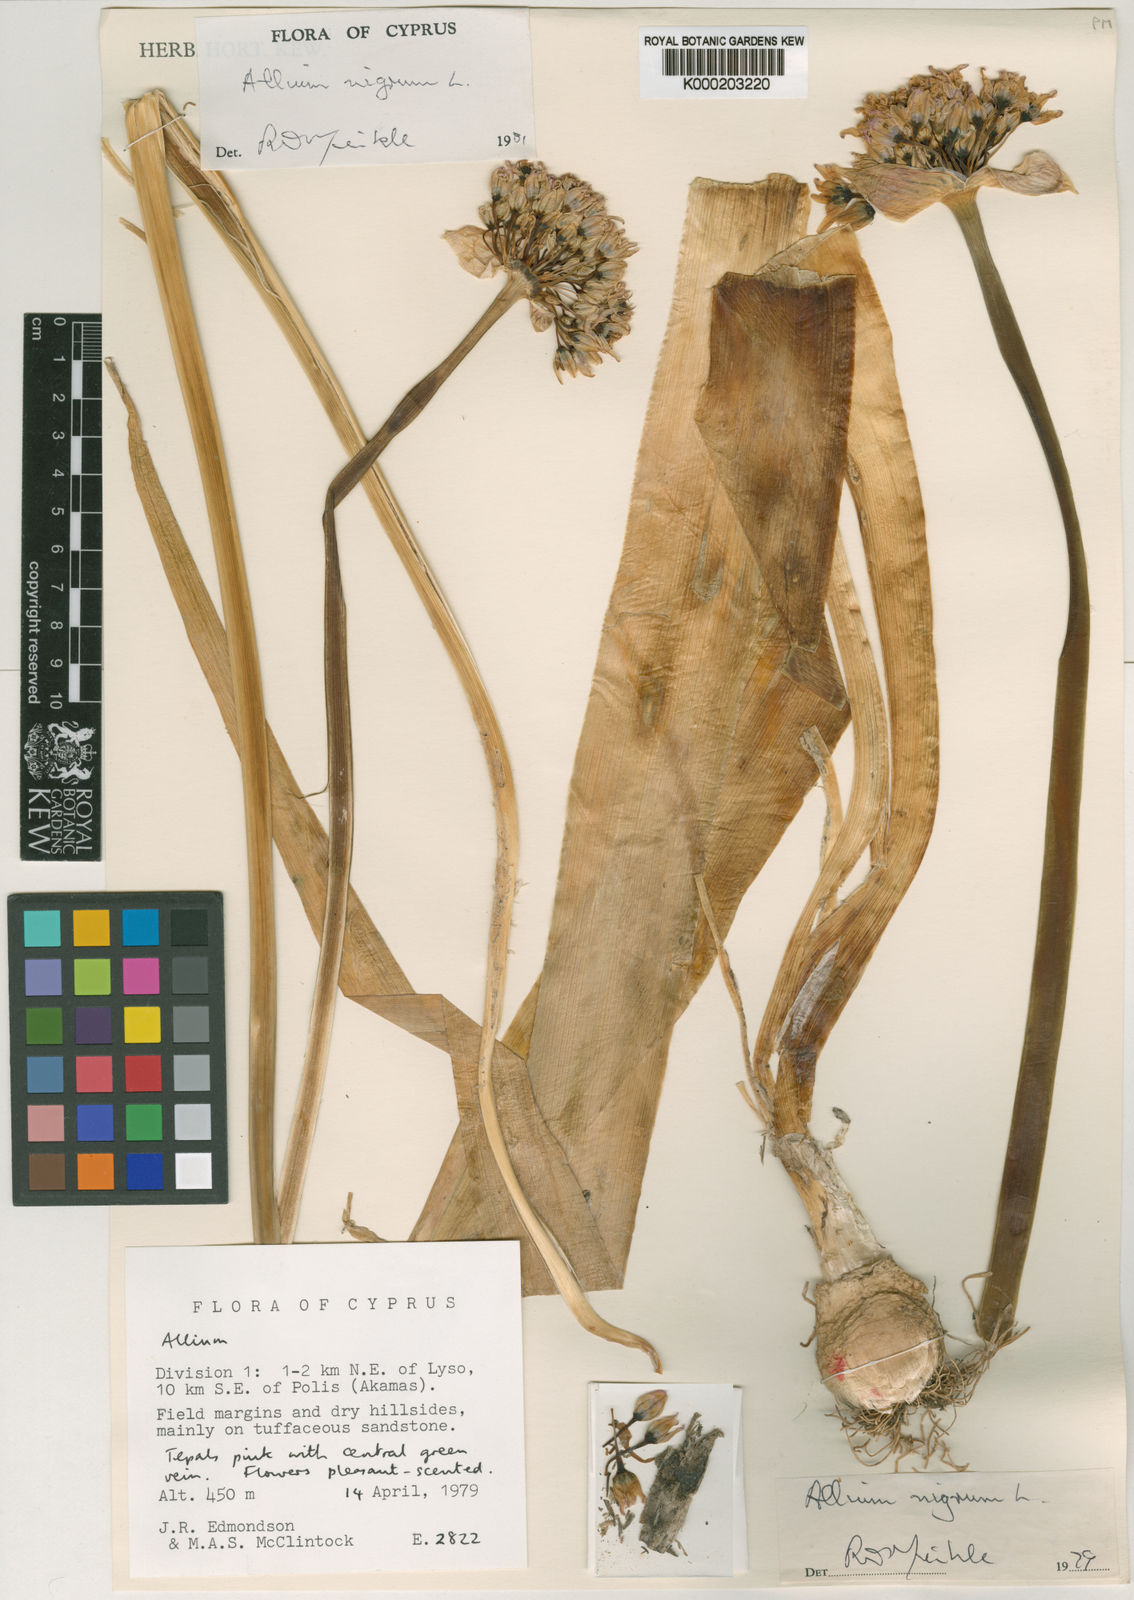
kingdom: Plantae
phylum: Tracheophyta
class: Liliopsida
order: Asparagales
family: Amaryllidaceae
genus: Allium
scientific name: Allium nigrum
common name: Black garlic
